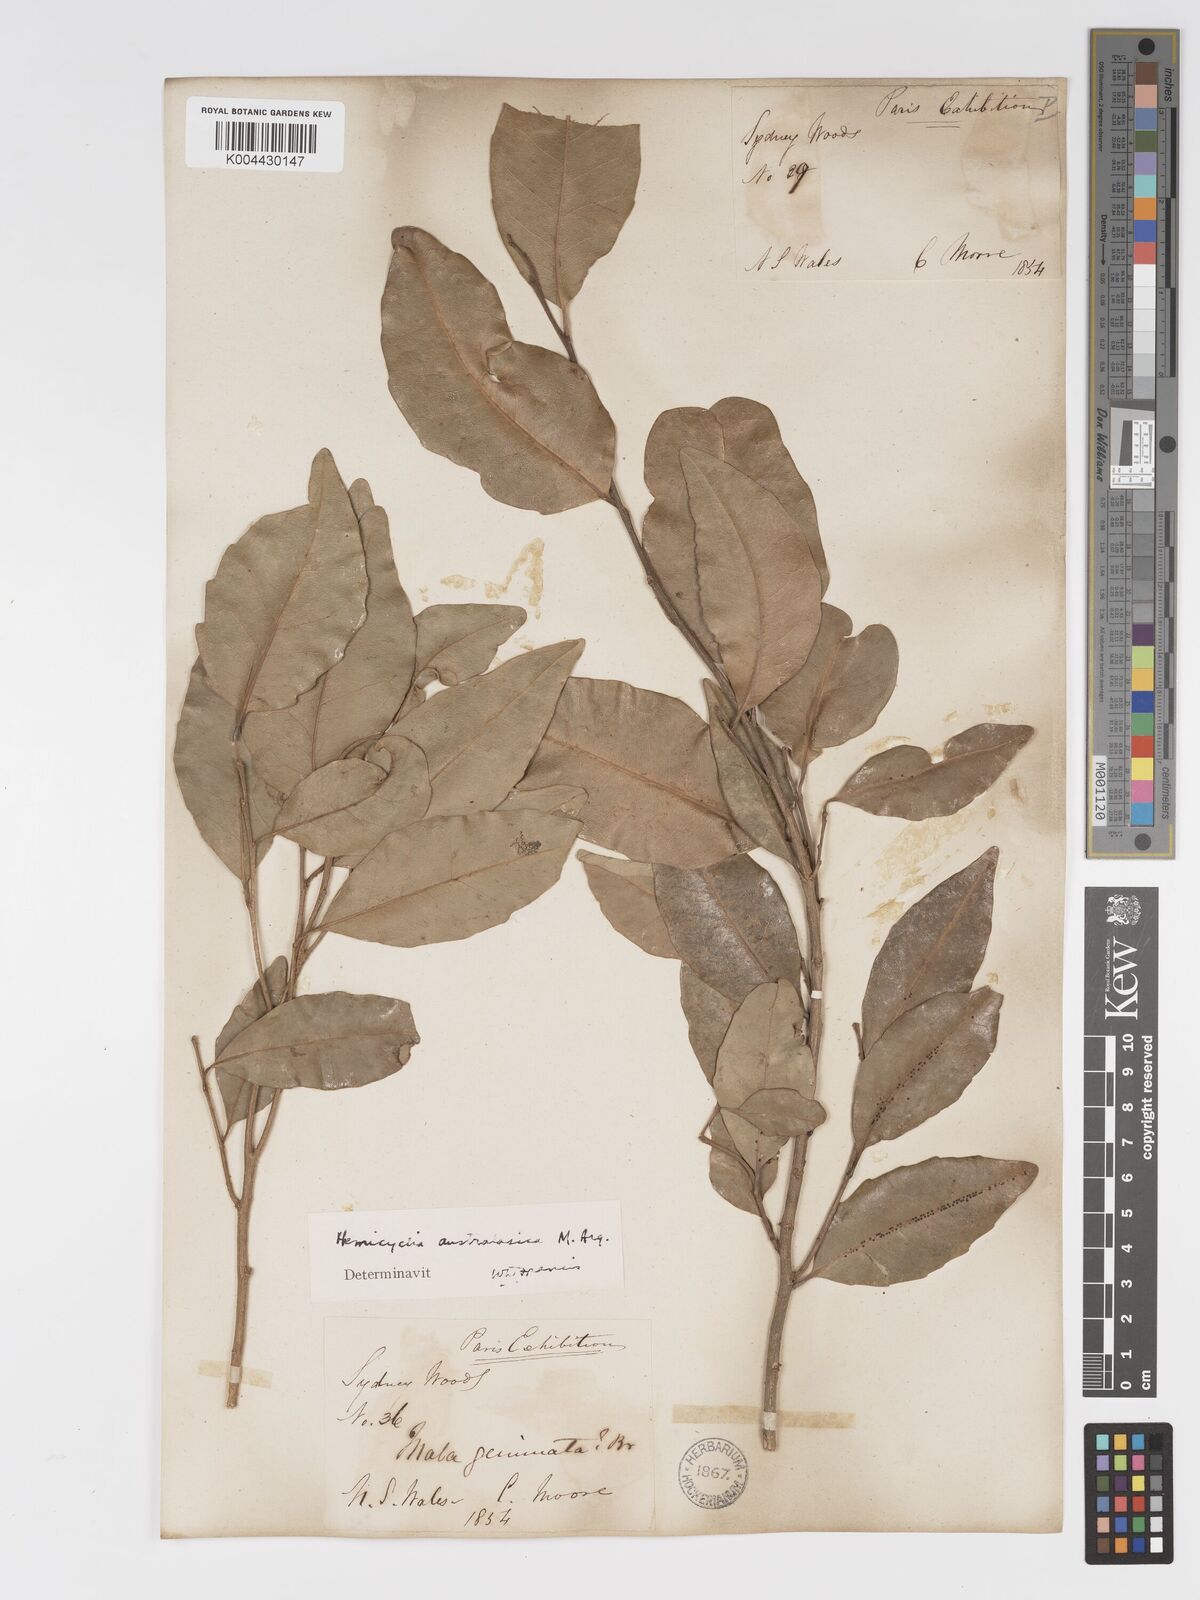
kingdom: Plantae
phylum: Tracheophyta
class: Magnoliopsida
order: Malpighiales
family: Putranjivaceae
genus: Drypetes
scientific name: Drypetes deplanchei
